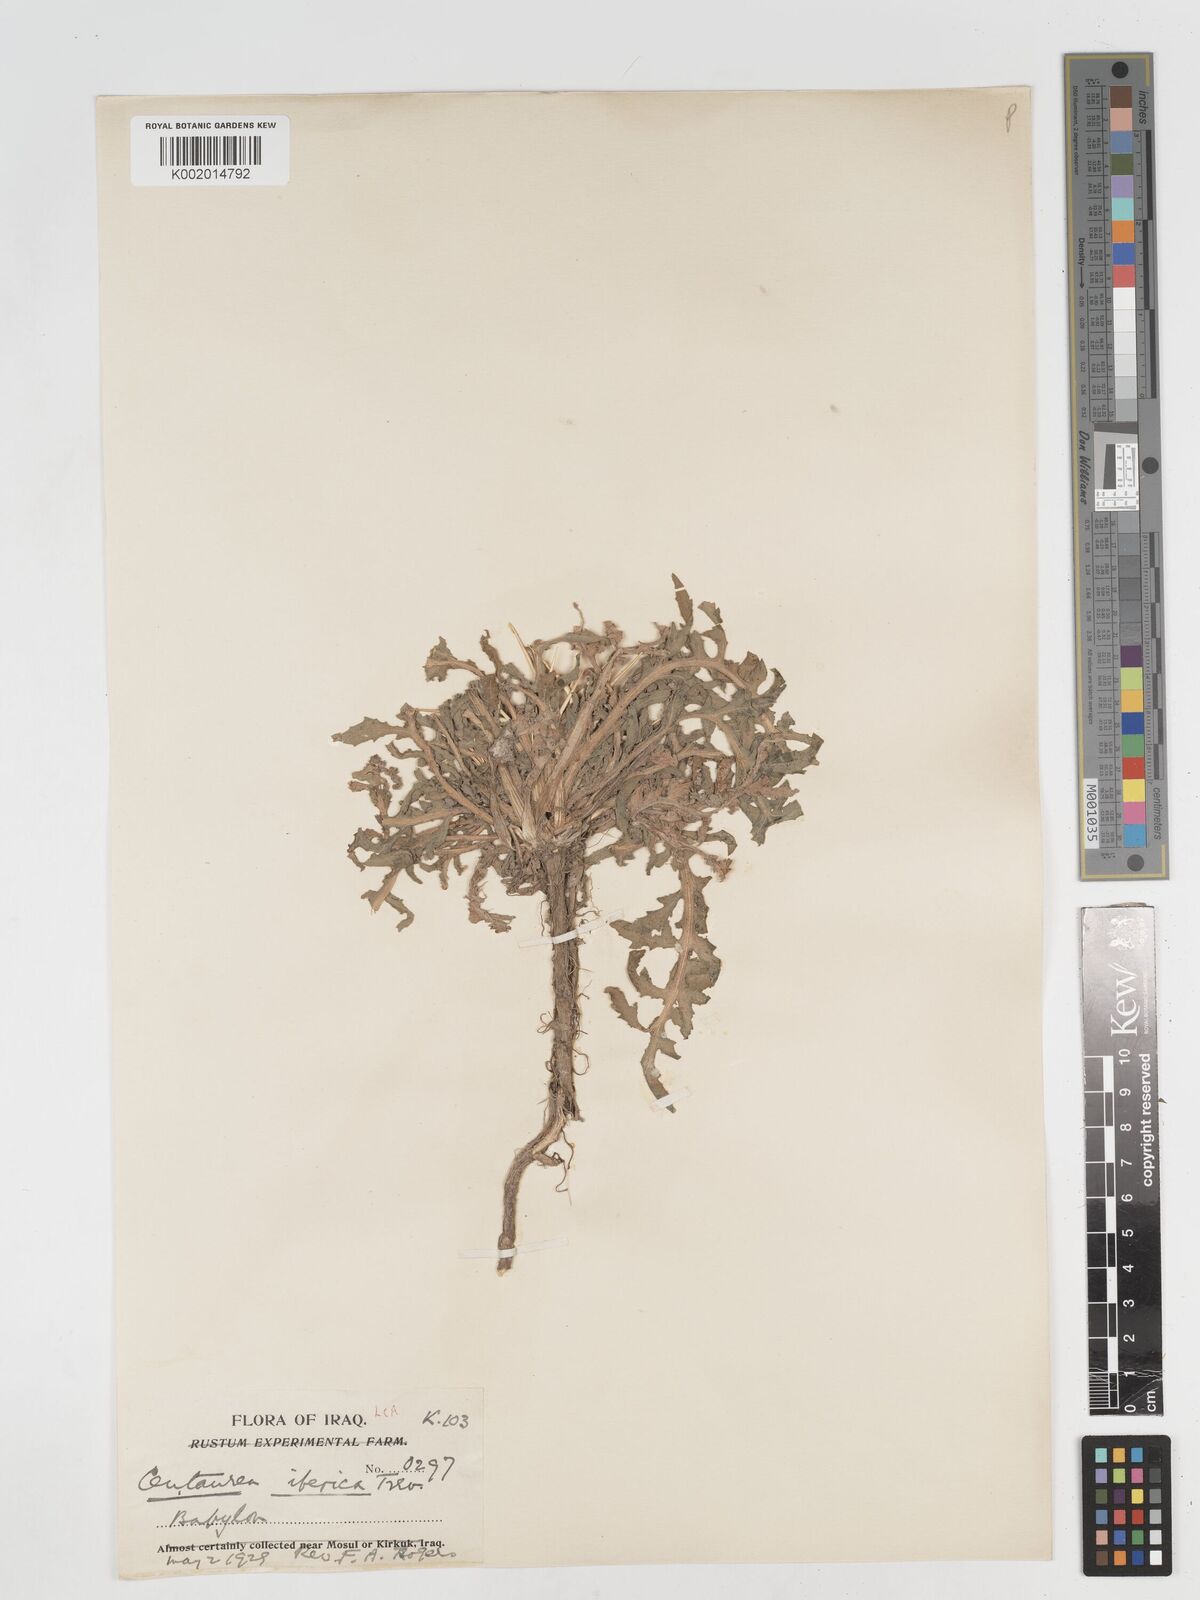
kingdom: Plantae
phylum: Tracheophyta
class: Magnoliopsida
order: Asterales
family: Asteraceae
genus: Centaurea
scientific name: Centaurea iberica
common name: Iberian knapweed
